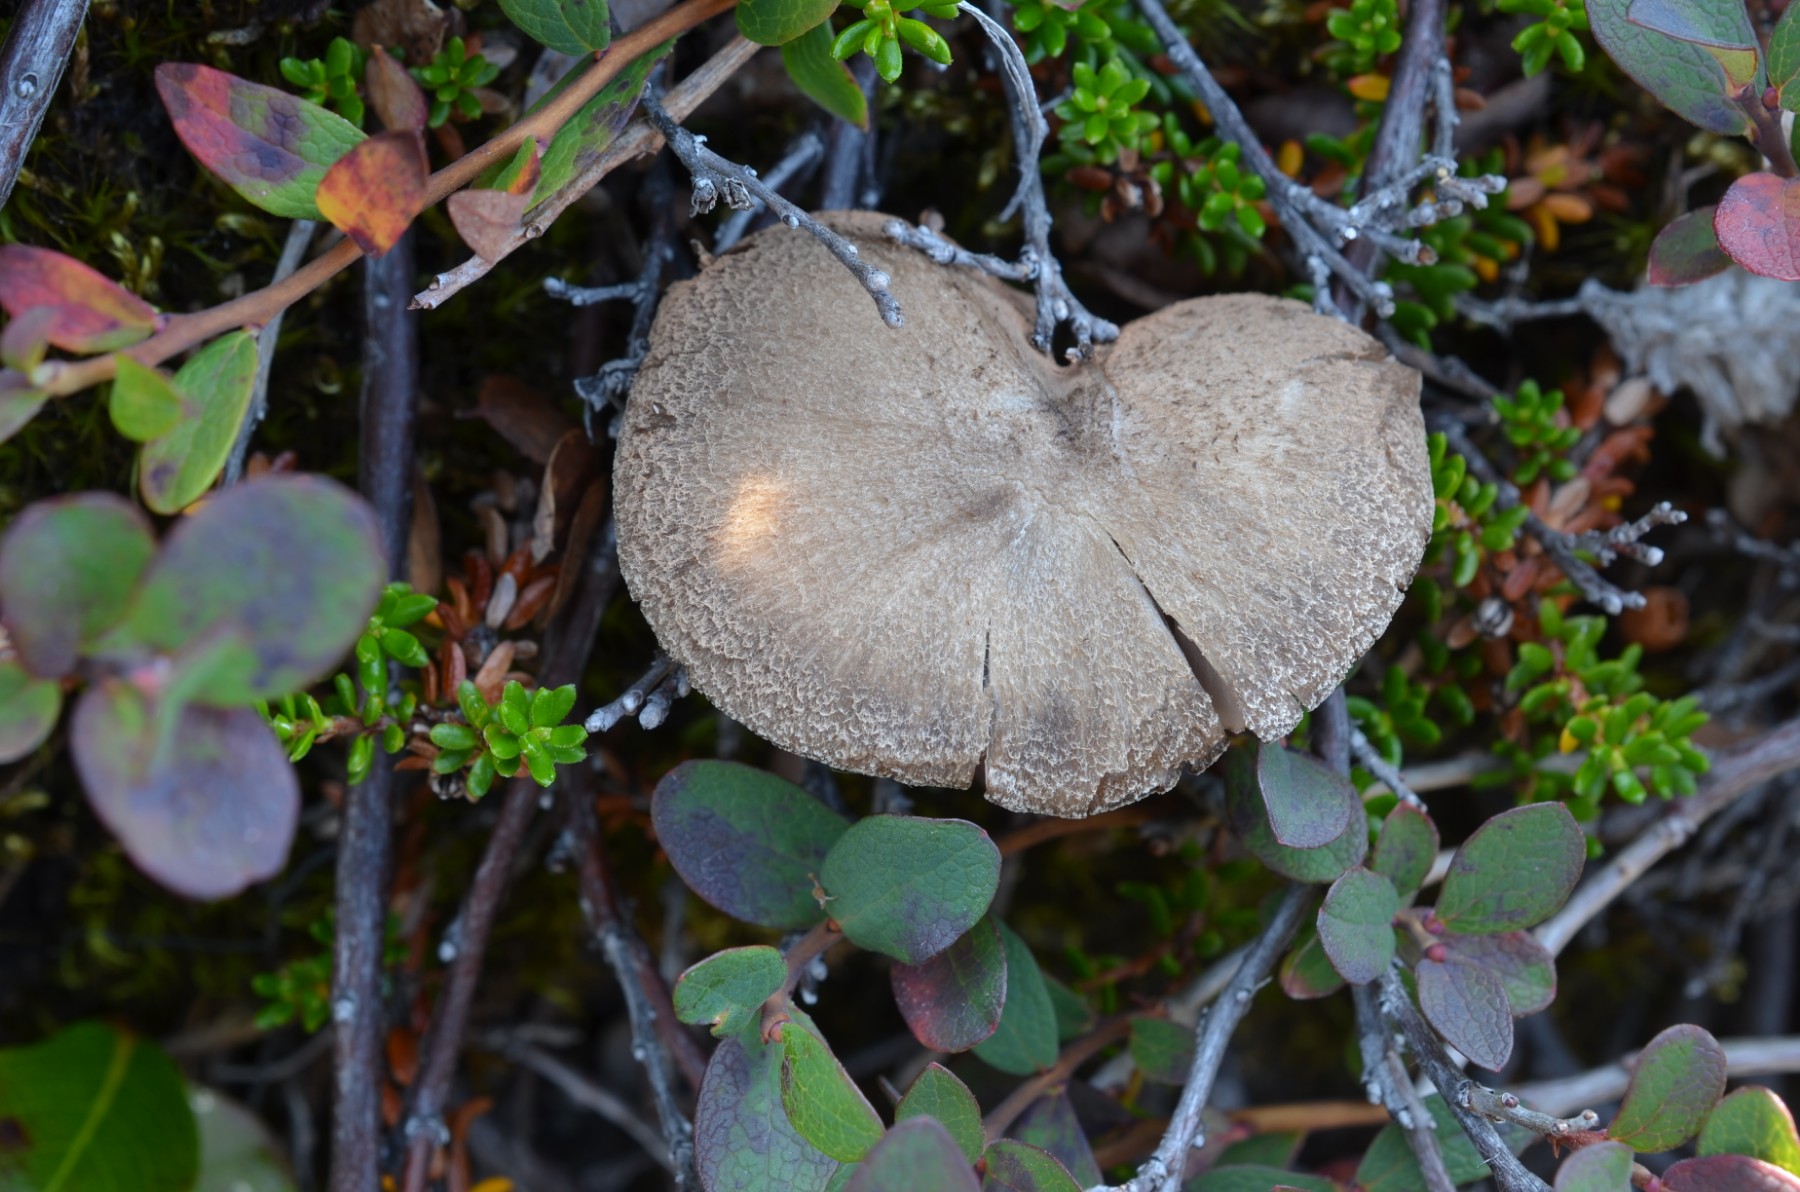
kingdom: Fungi
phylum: Basidiomycota
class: Agaricomycetes
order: Agaricales
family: Entolomataceae
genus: Entoloma
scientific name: Entoloma fuscotomentosum
